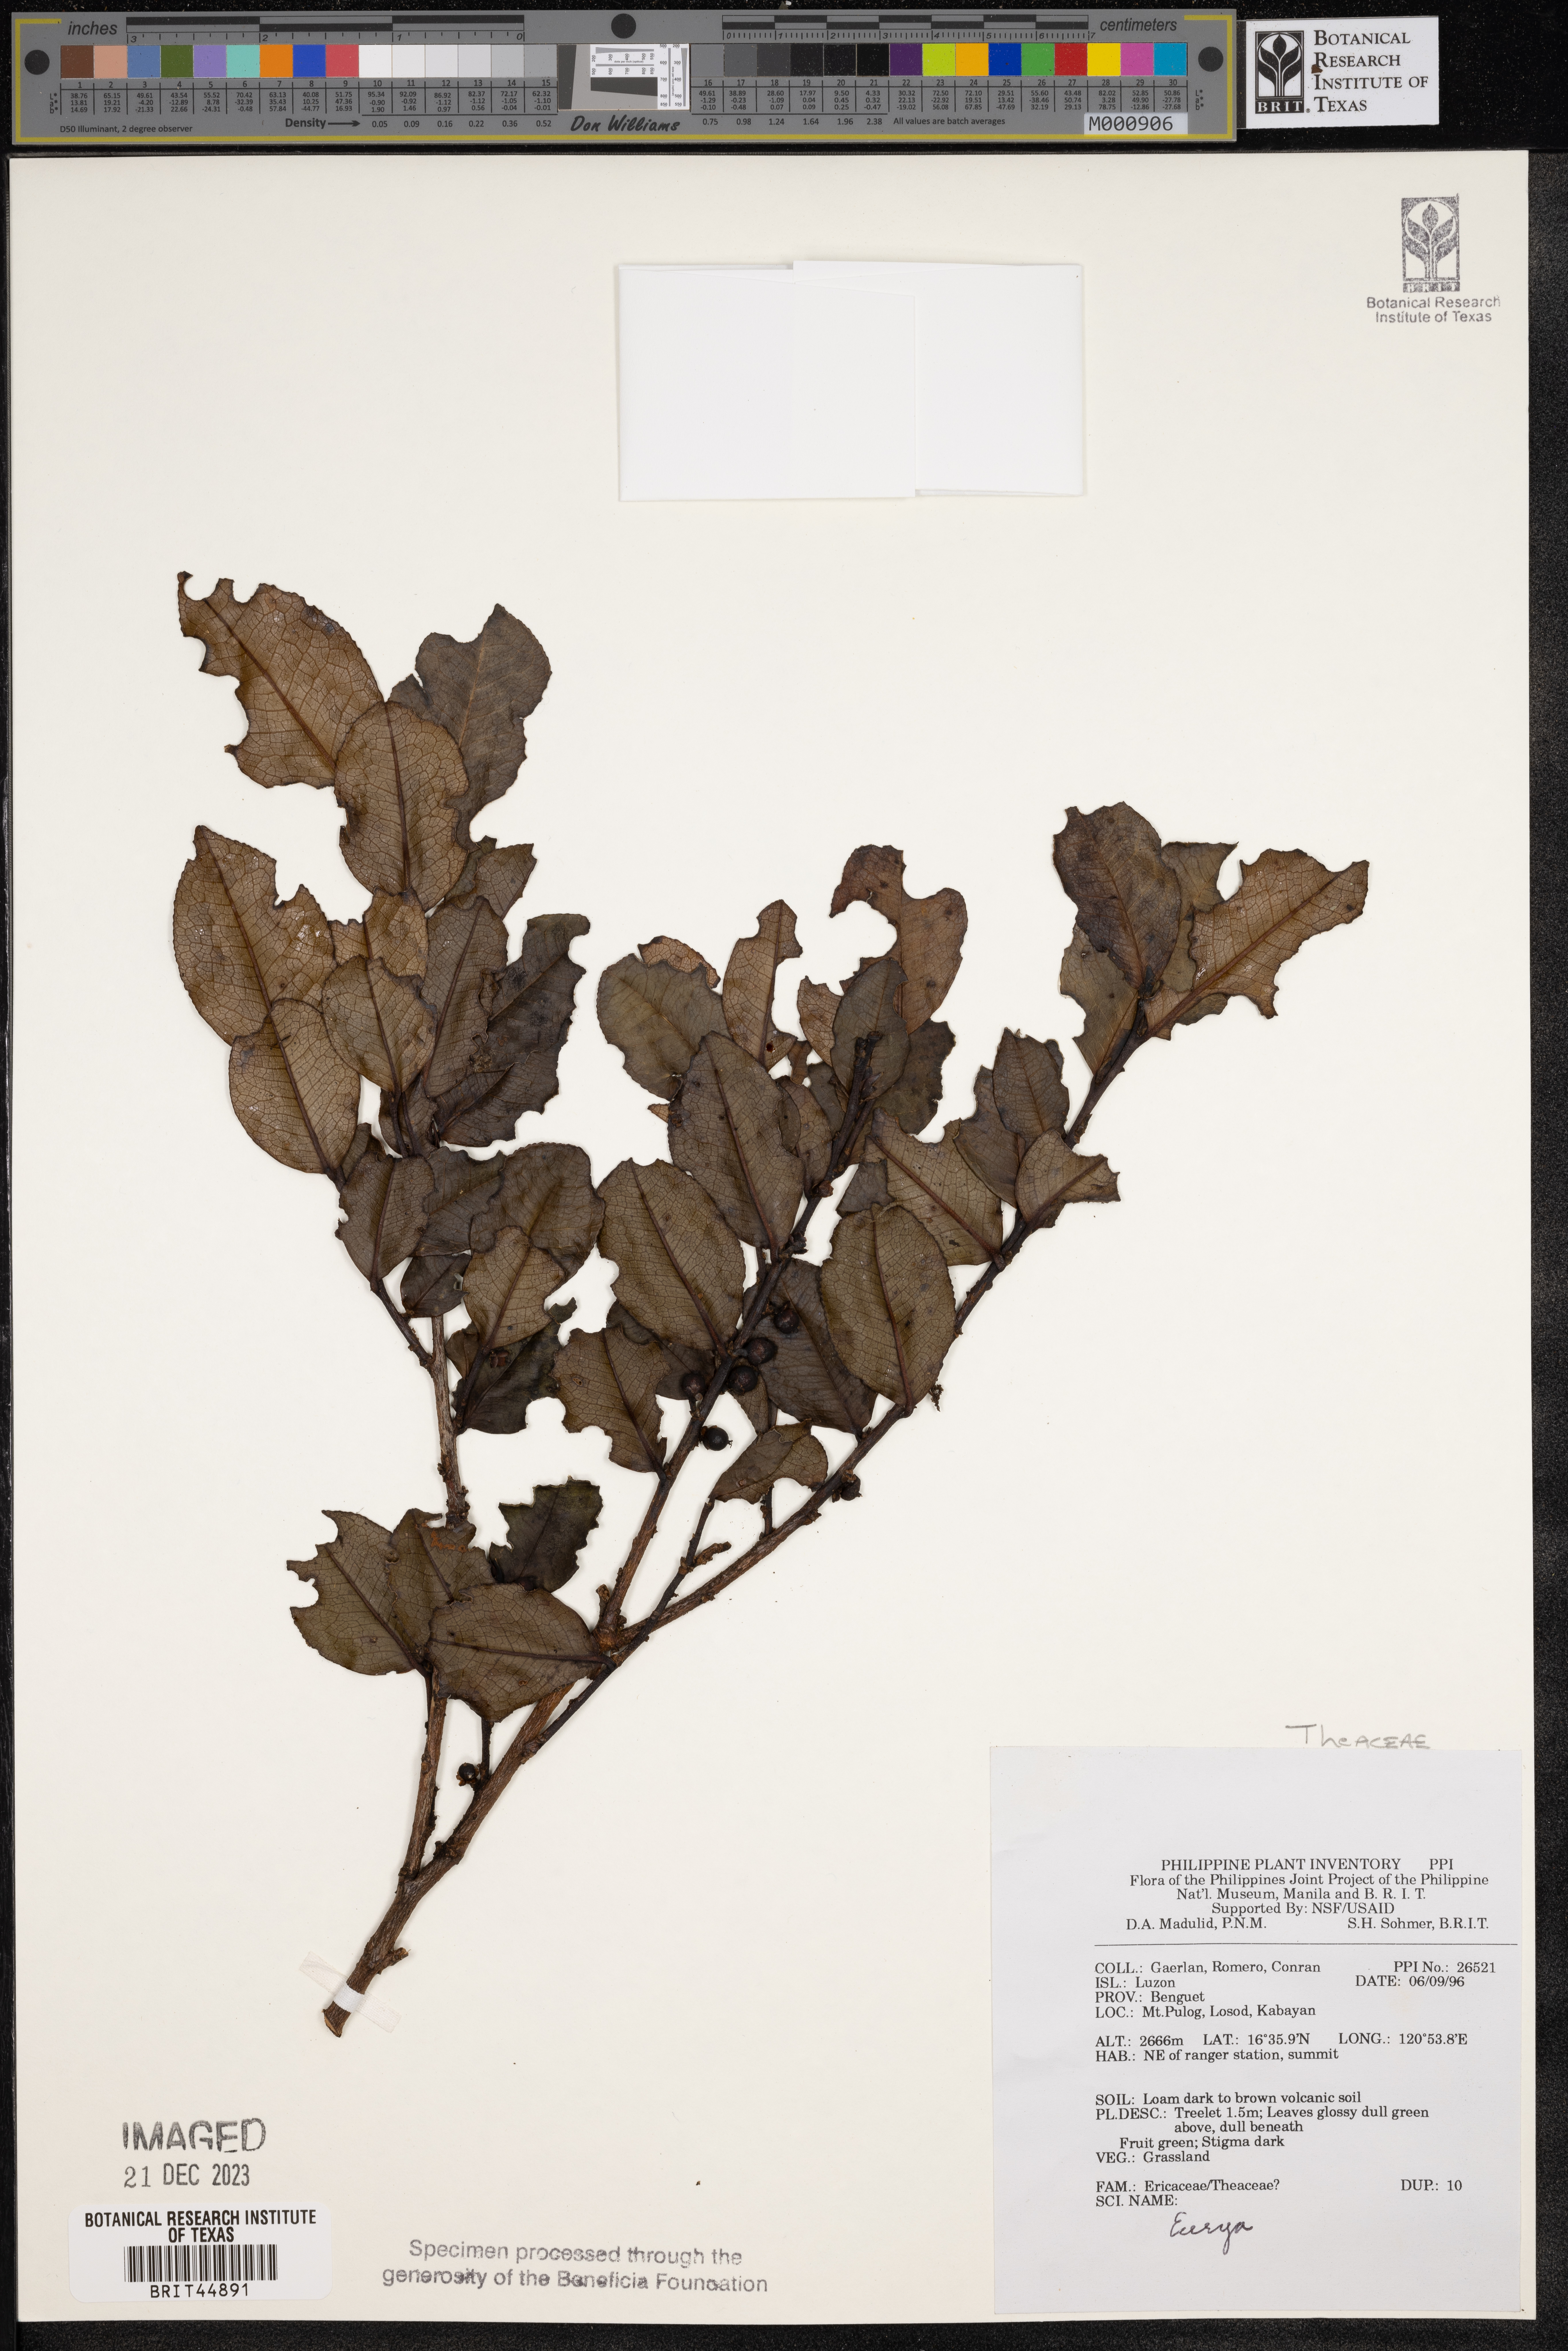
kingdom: Plantae
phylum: Tracheophyta
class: Magnoliopsida
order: Ericales
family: Pentaphylacaceae
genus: Eurya
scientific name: Eurya
